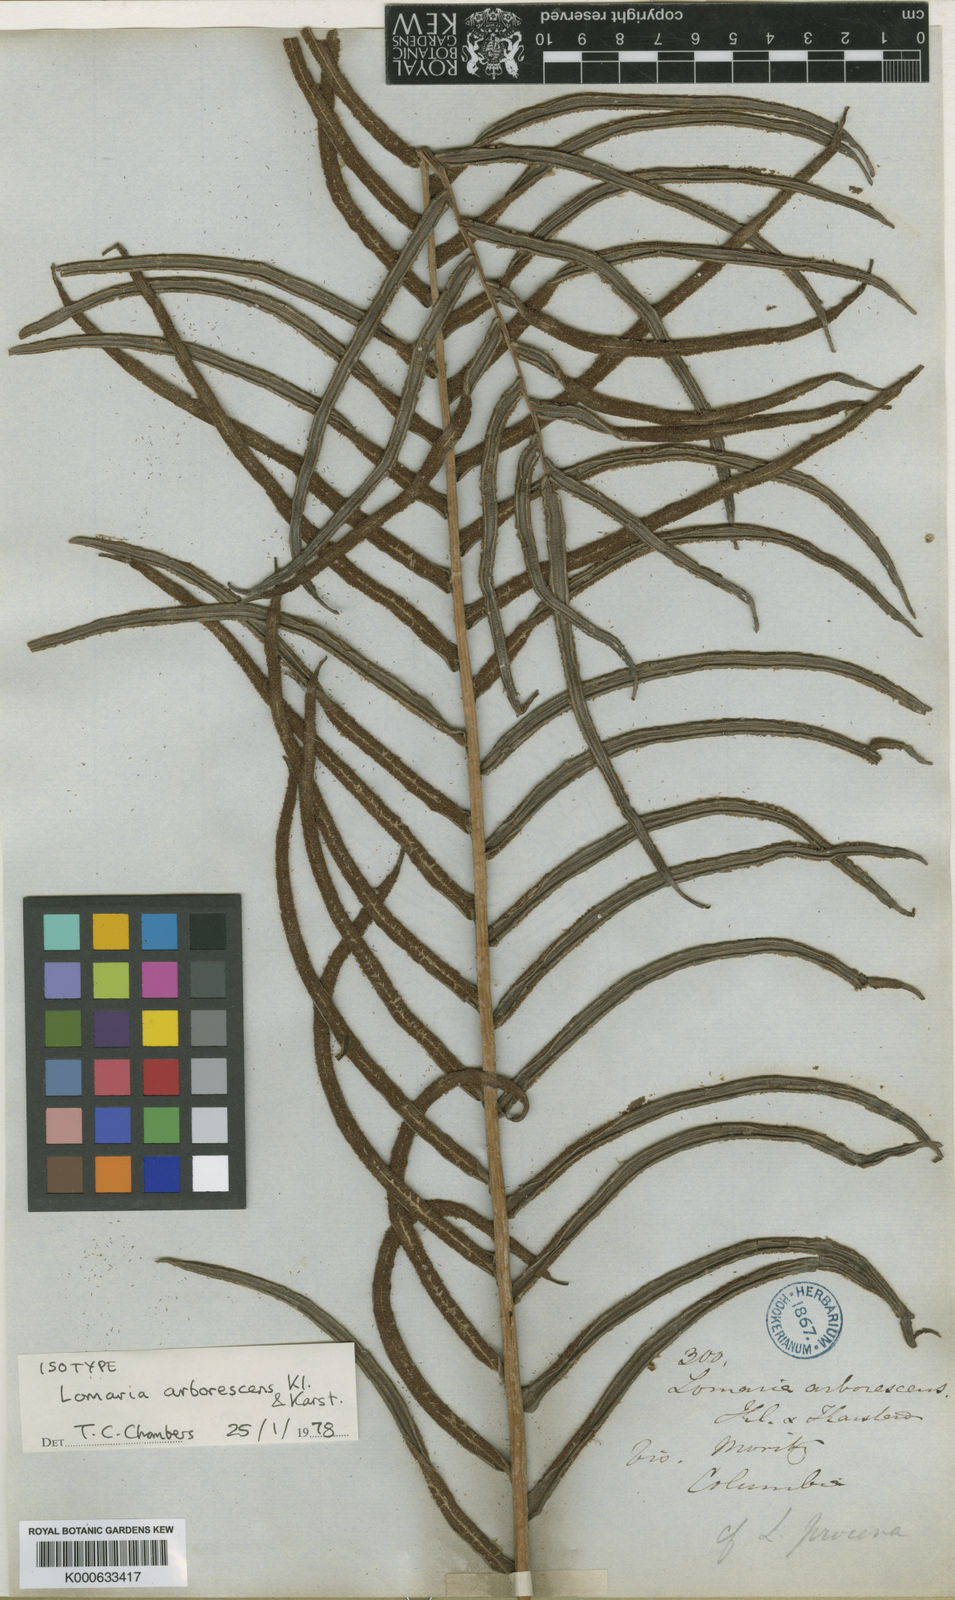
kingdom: Plantae
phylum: Tracheophyta
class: Polypodiopsida
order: Polypodiales
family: Blechnaceae
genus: Parablechnum
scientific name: Parablechnum cordatum
